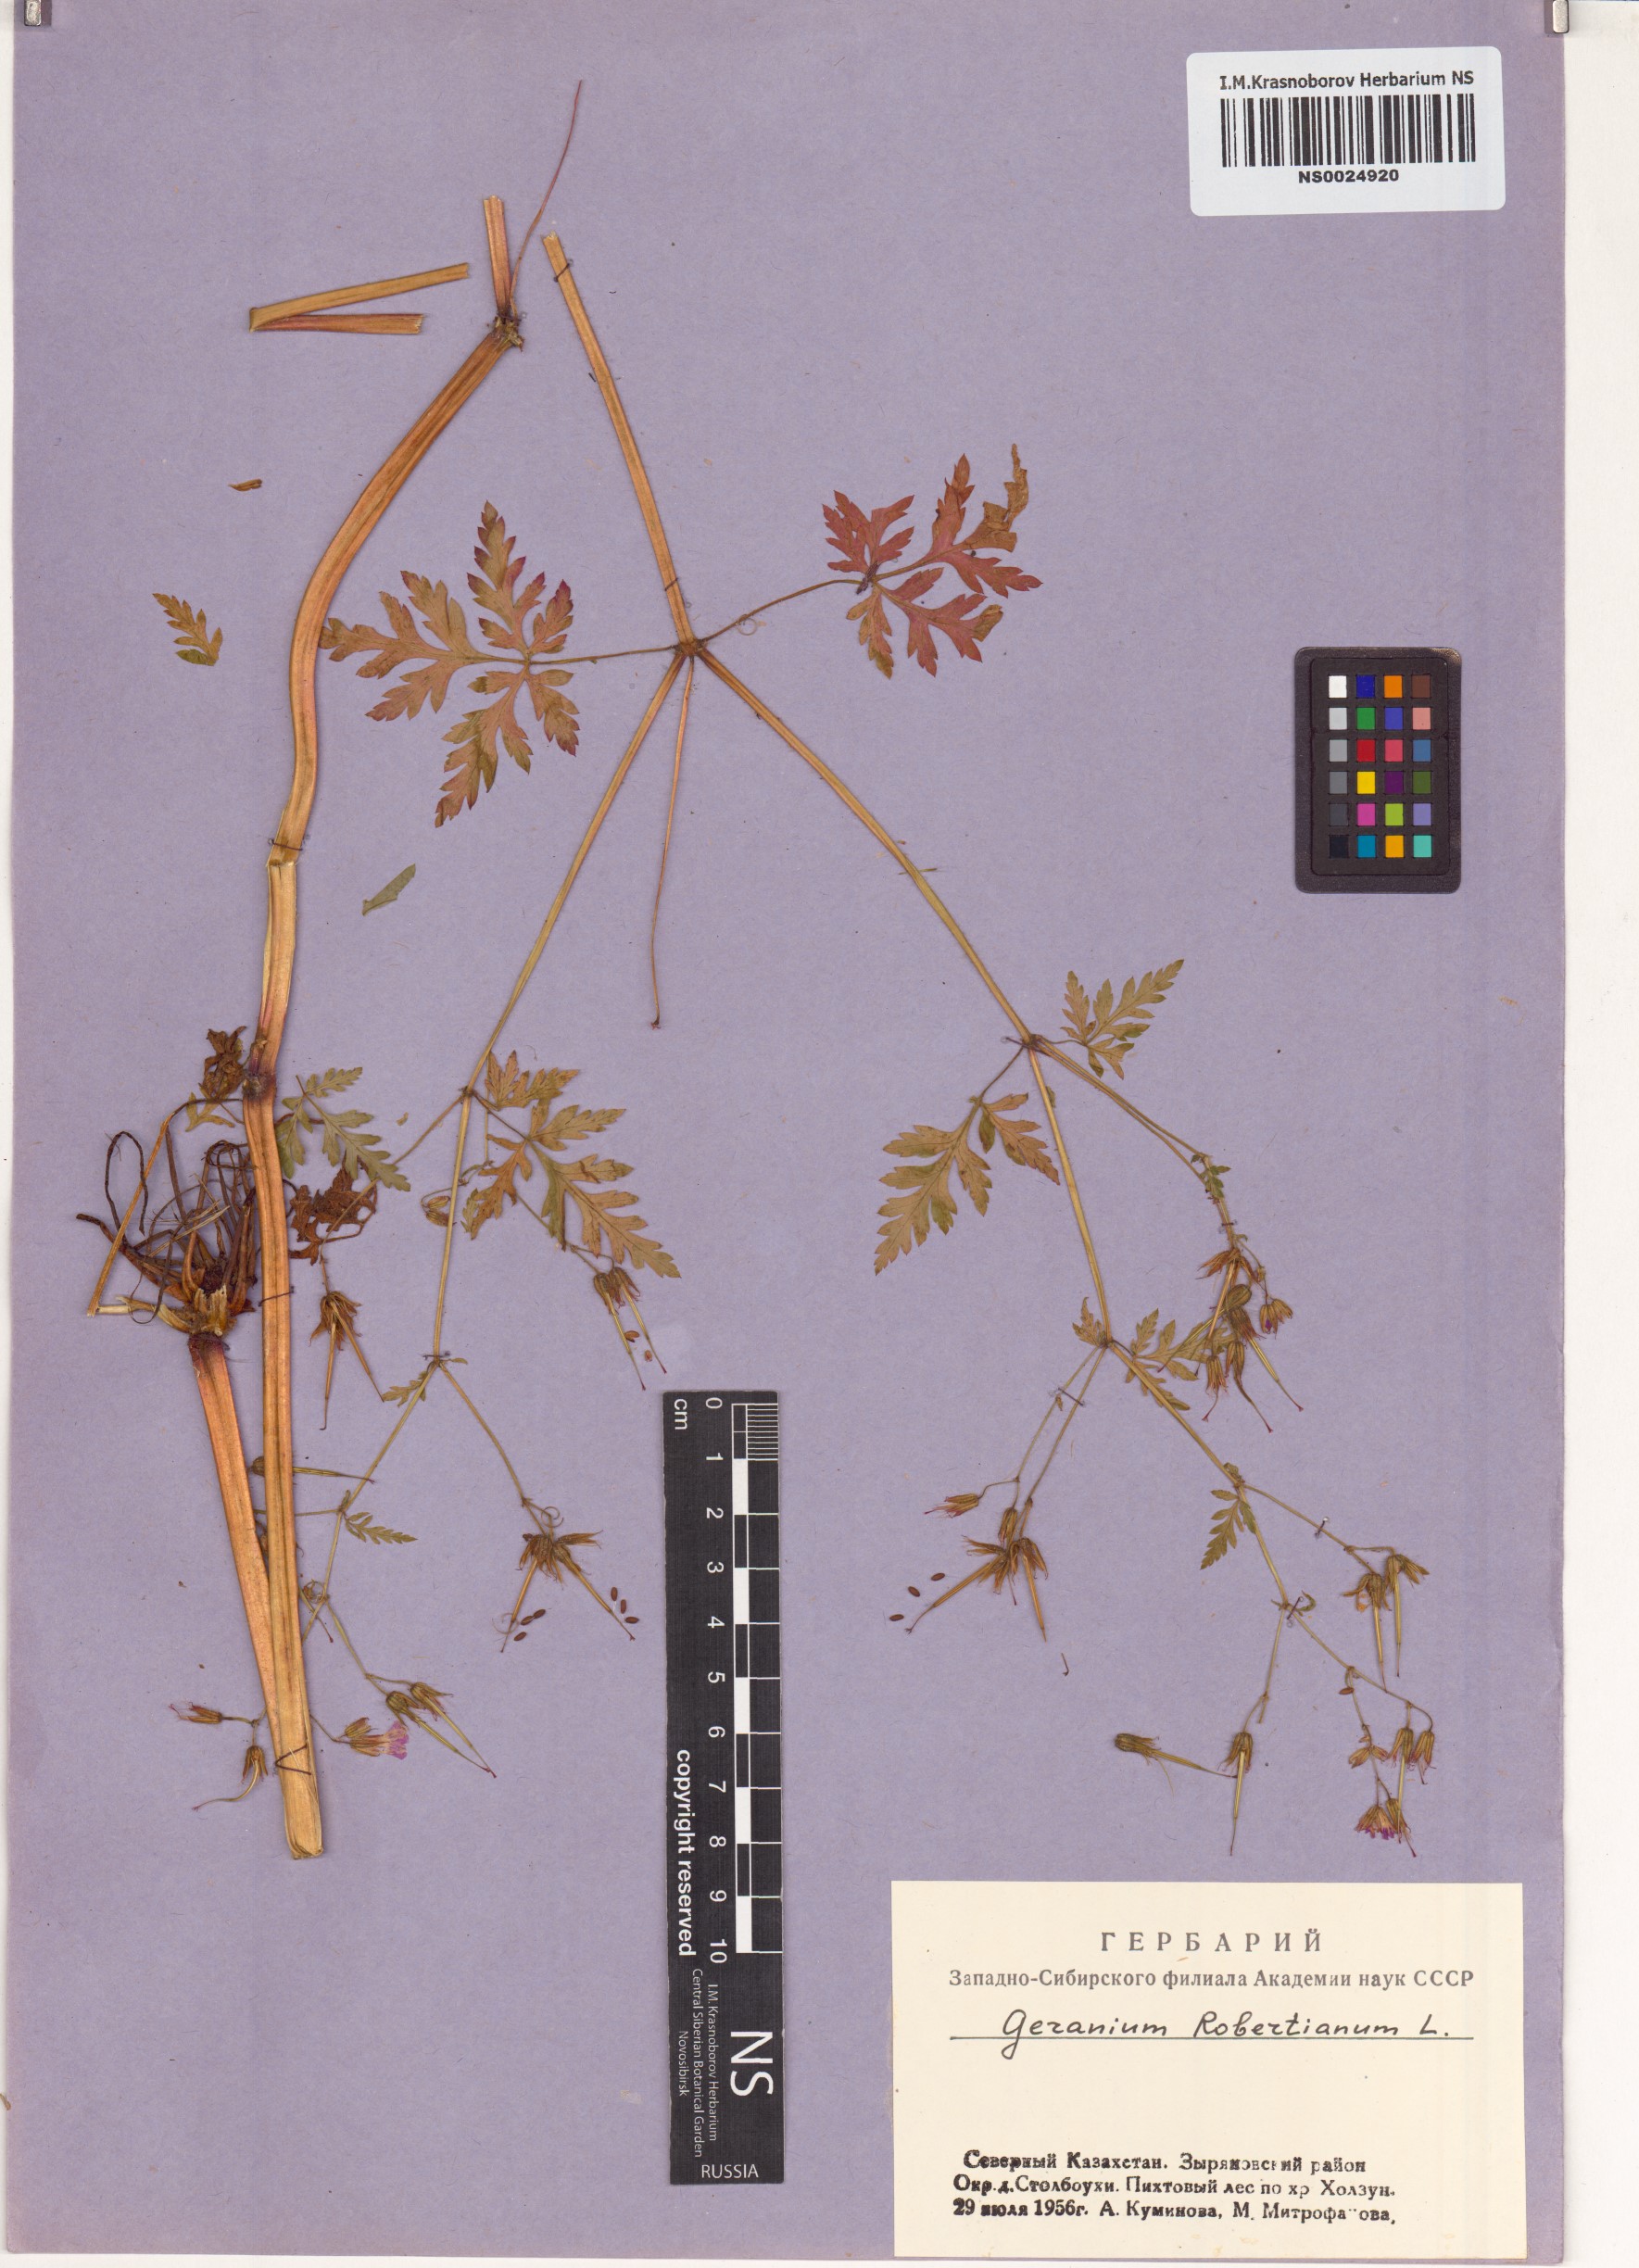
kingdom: Plantae
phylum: Tracheophyta
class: Magnoliopsida
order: Geraniales
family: Geraniaceae
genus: Geranium
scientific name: Geranium robertianum
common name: Herb-robert
